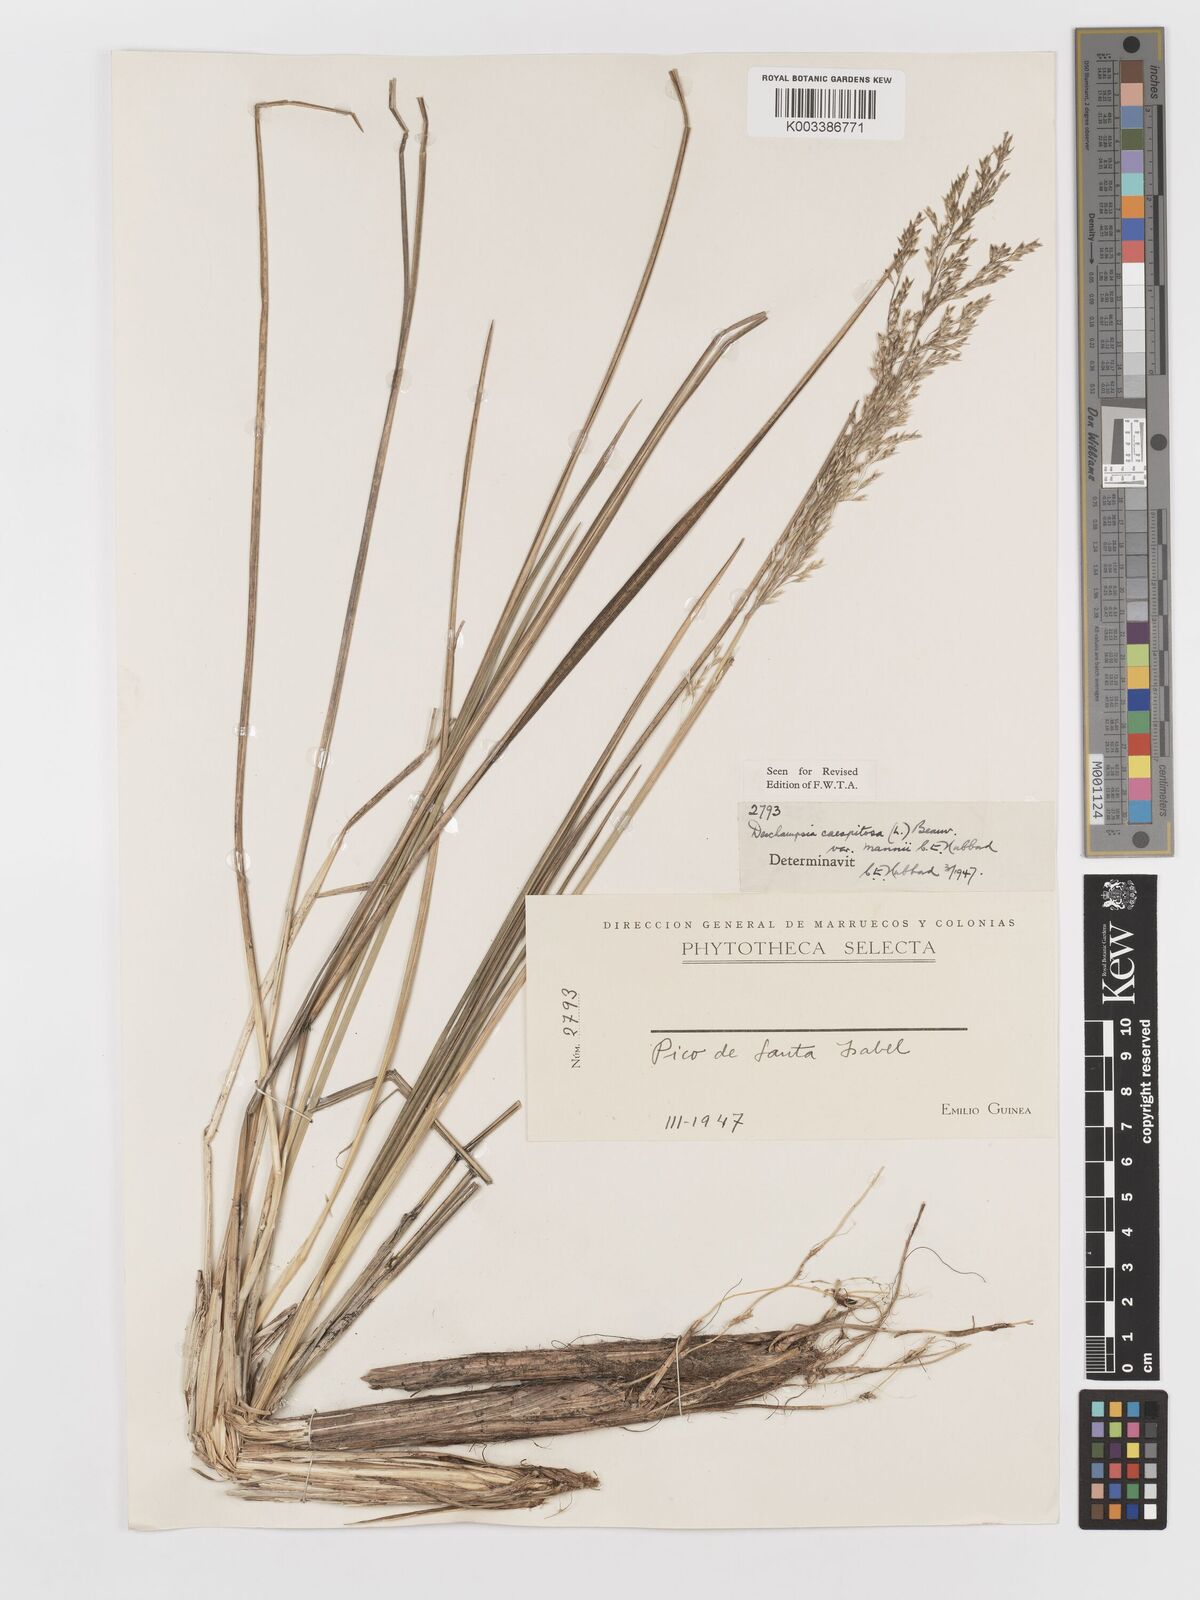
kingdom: Plantae
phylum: Tracheophyta
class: Liliopsida
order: Poales
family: Poaceae
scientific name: Poaceae
